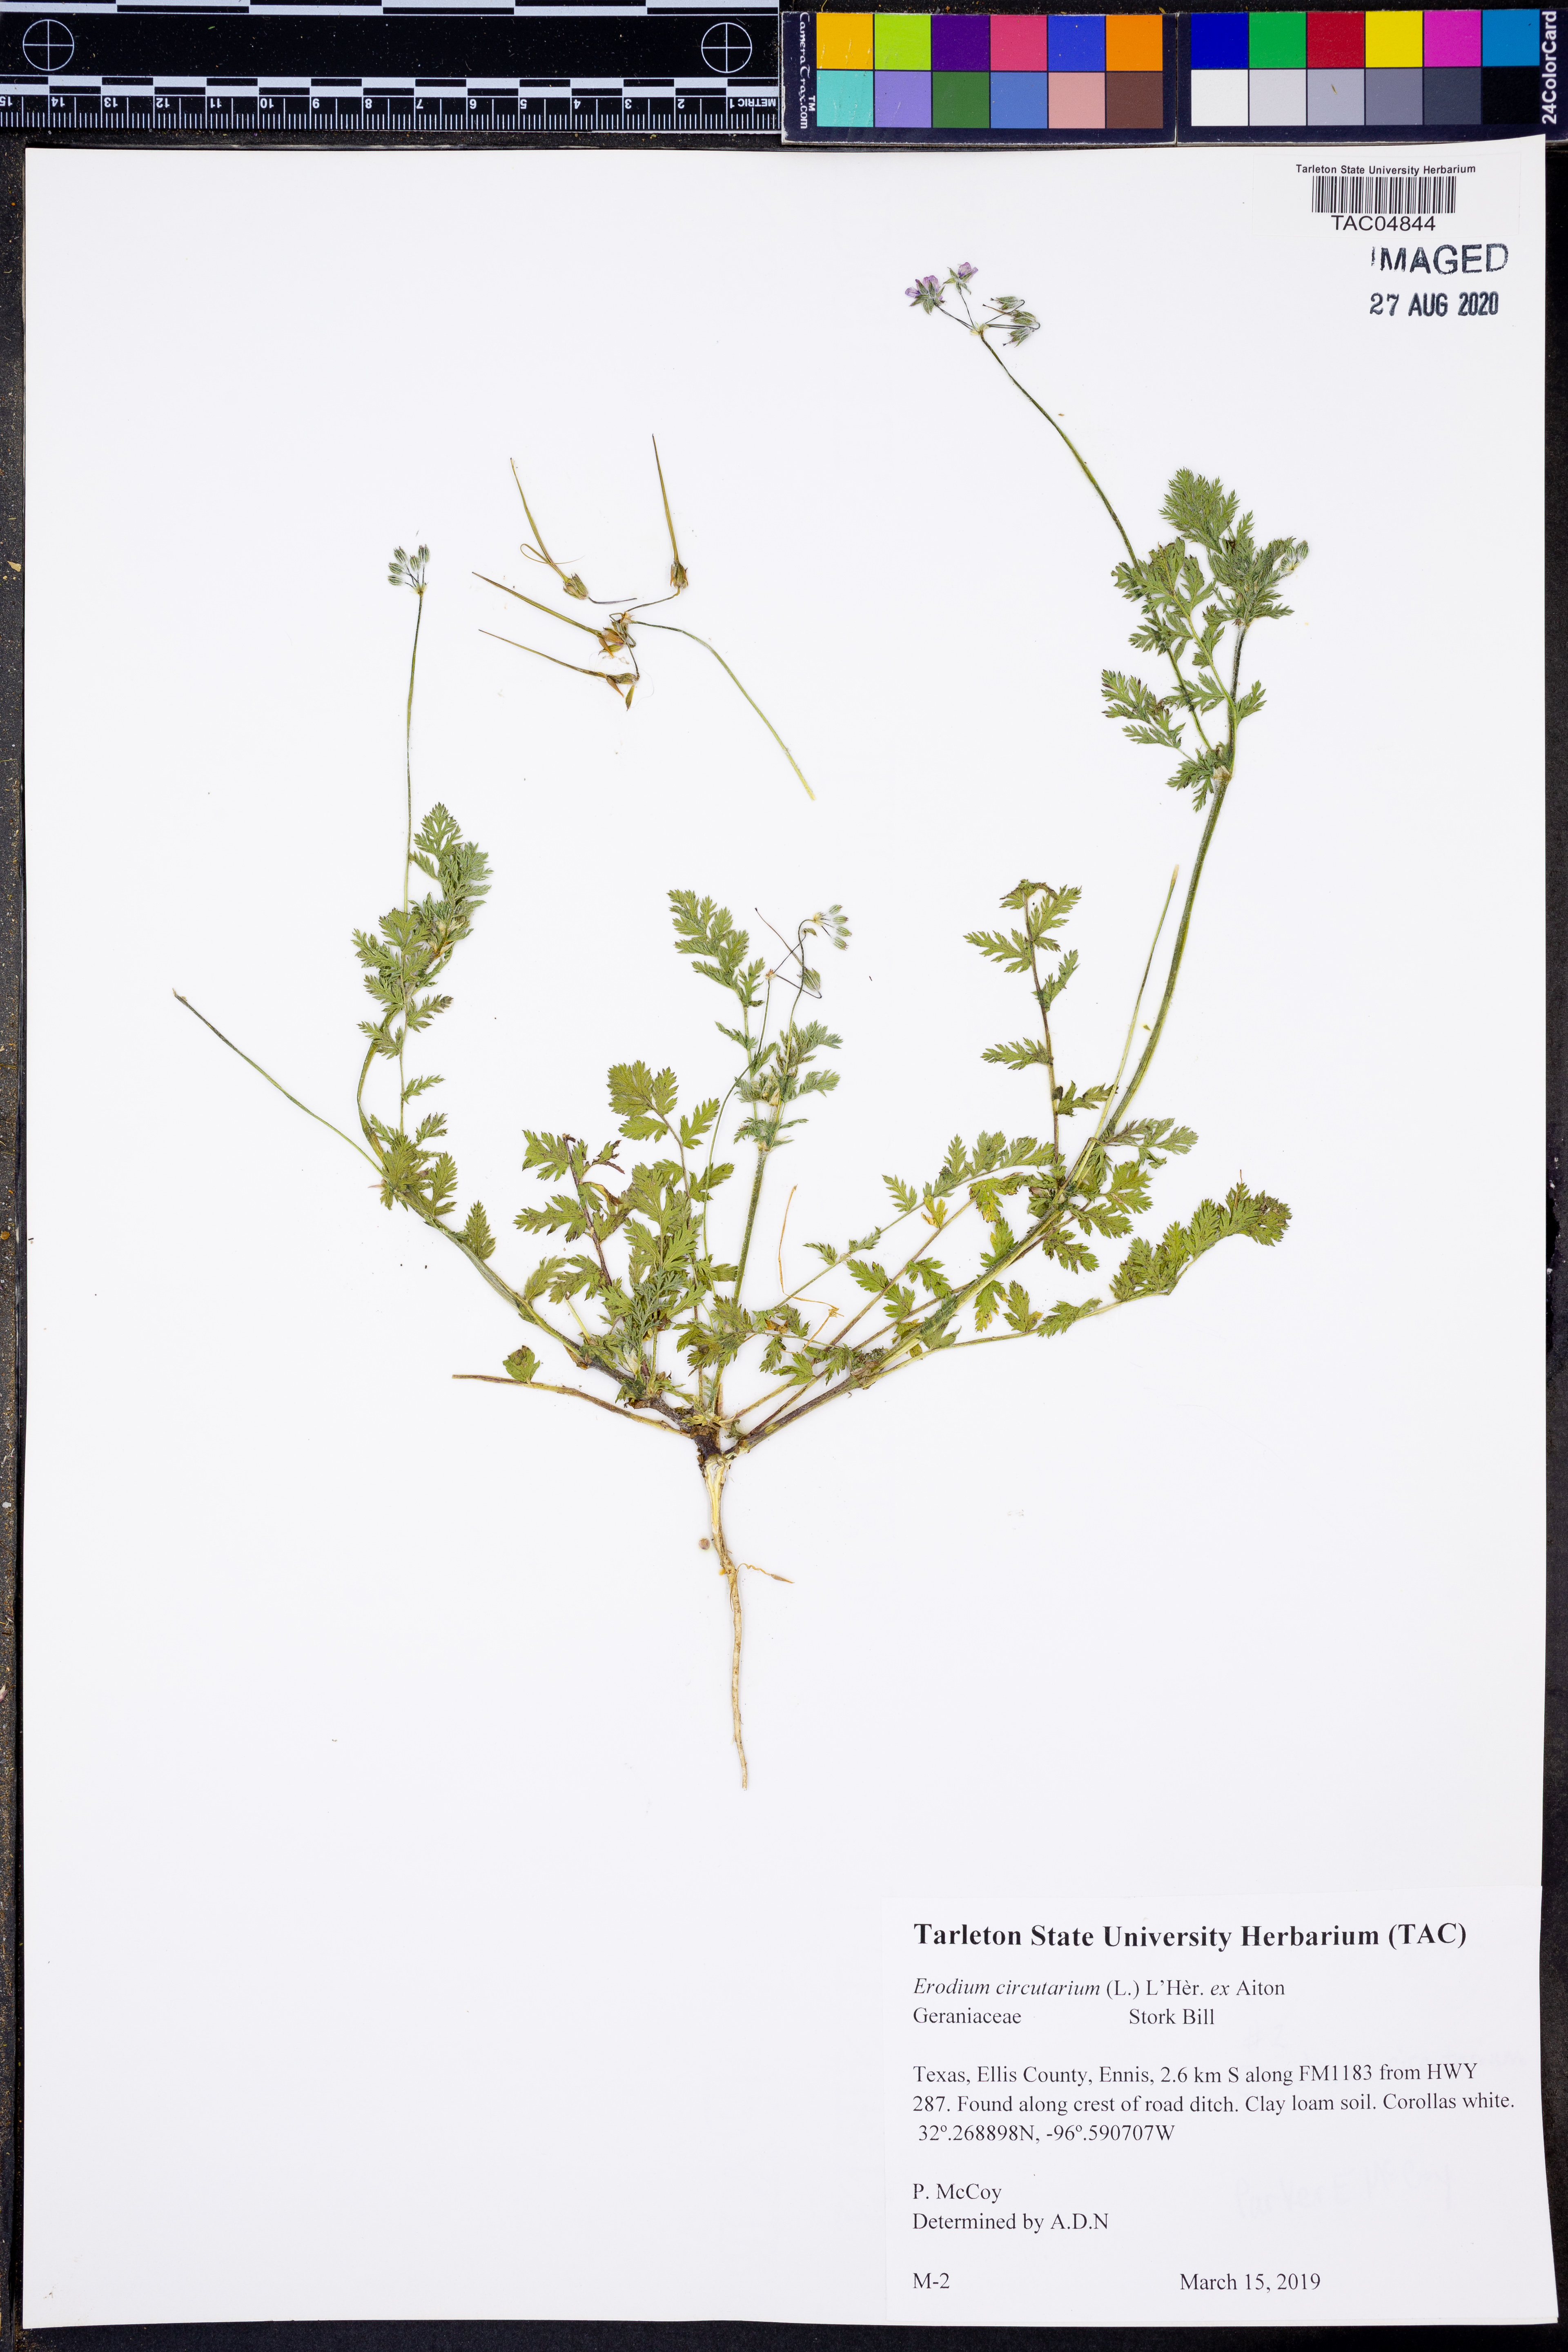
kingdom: Plantae
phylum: Tracheophyta
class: Magnoliopsida
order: Geraniales
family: Geraniaceae
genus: Erodium
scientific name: Erodium cicutarium
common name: Common stork's-bill
